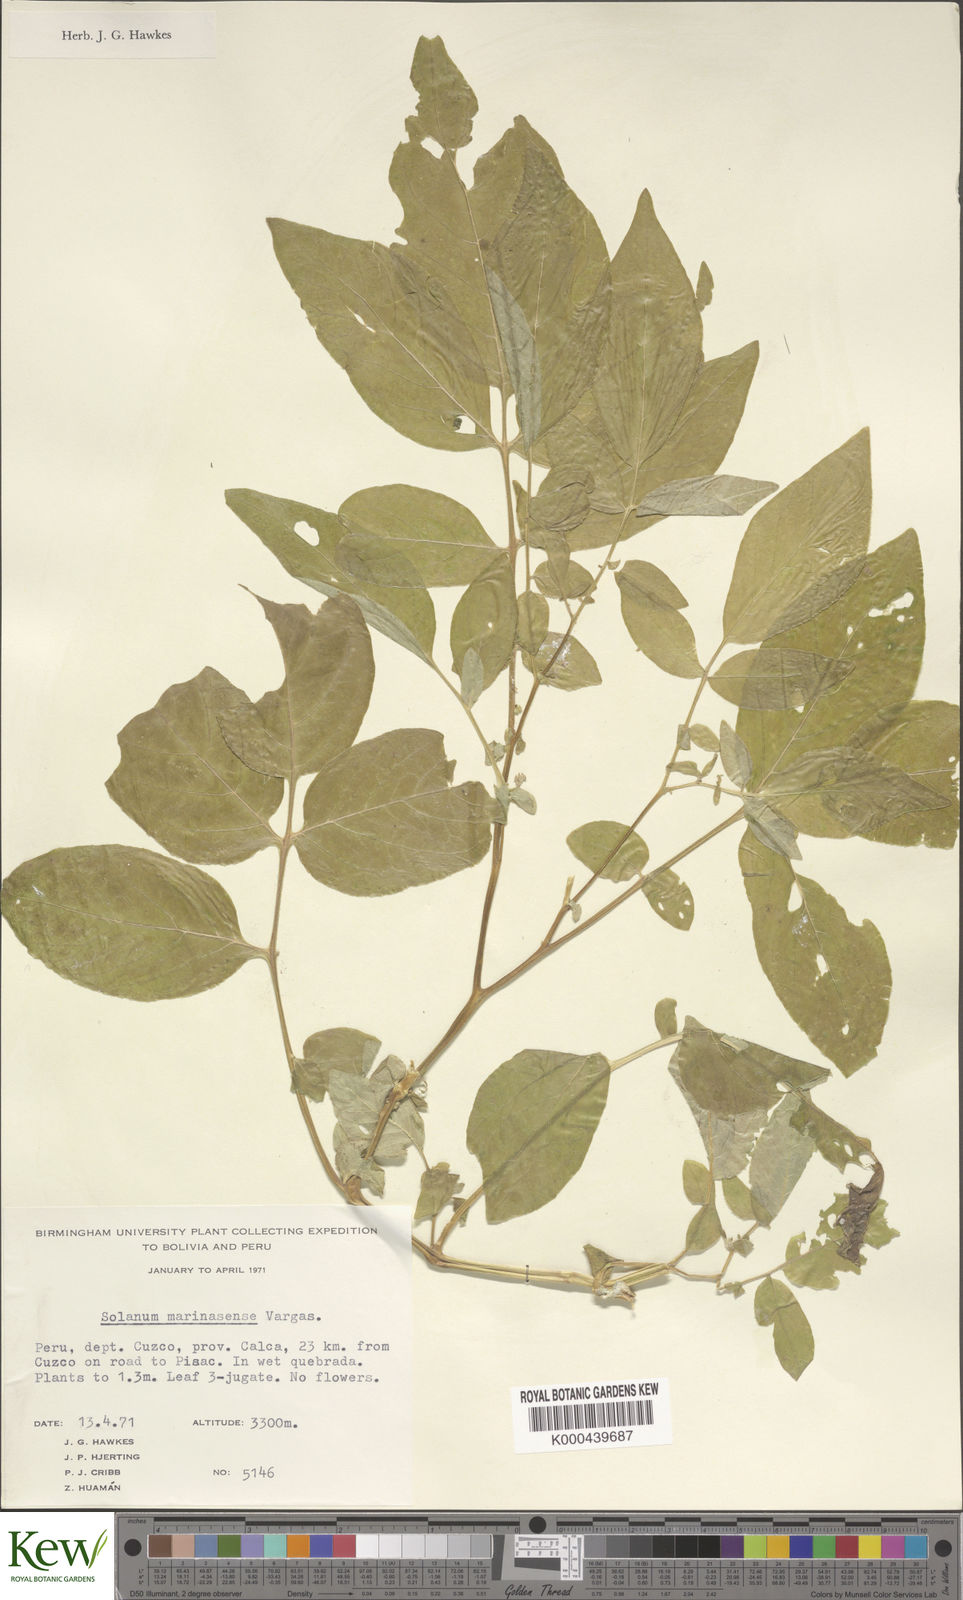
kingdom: Plantae
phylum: Tracheophyta
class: Magnoliopsida
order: Solanales
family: Solanaceae
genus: Solanum
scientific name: Solanum candolleanum
